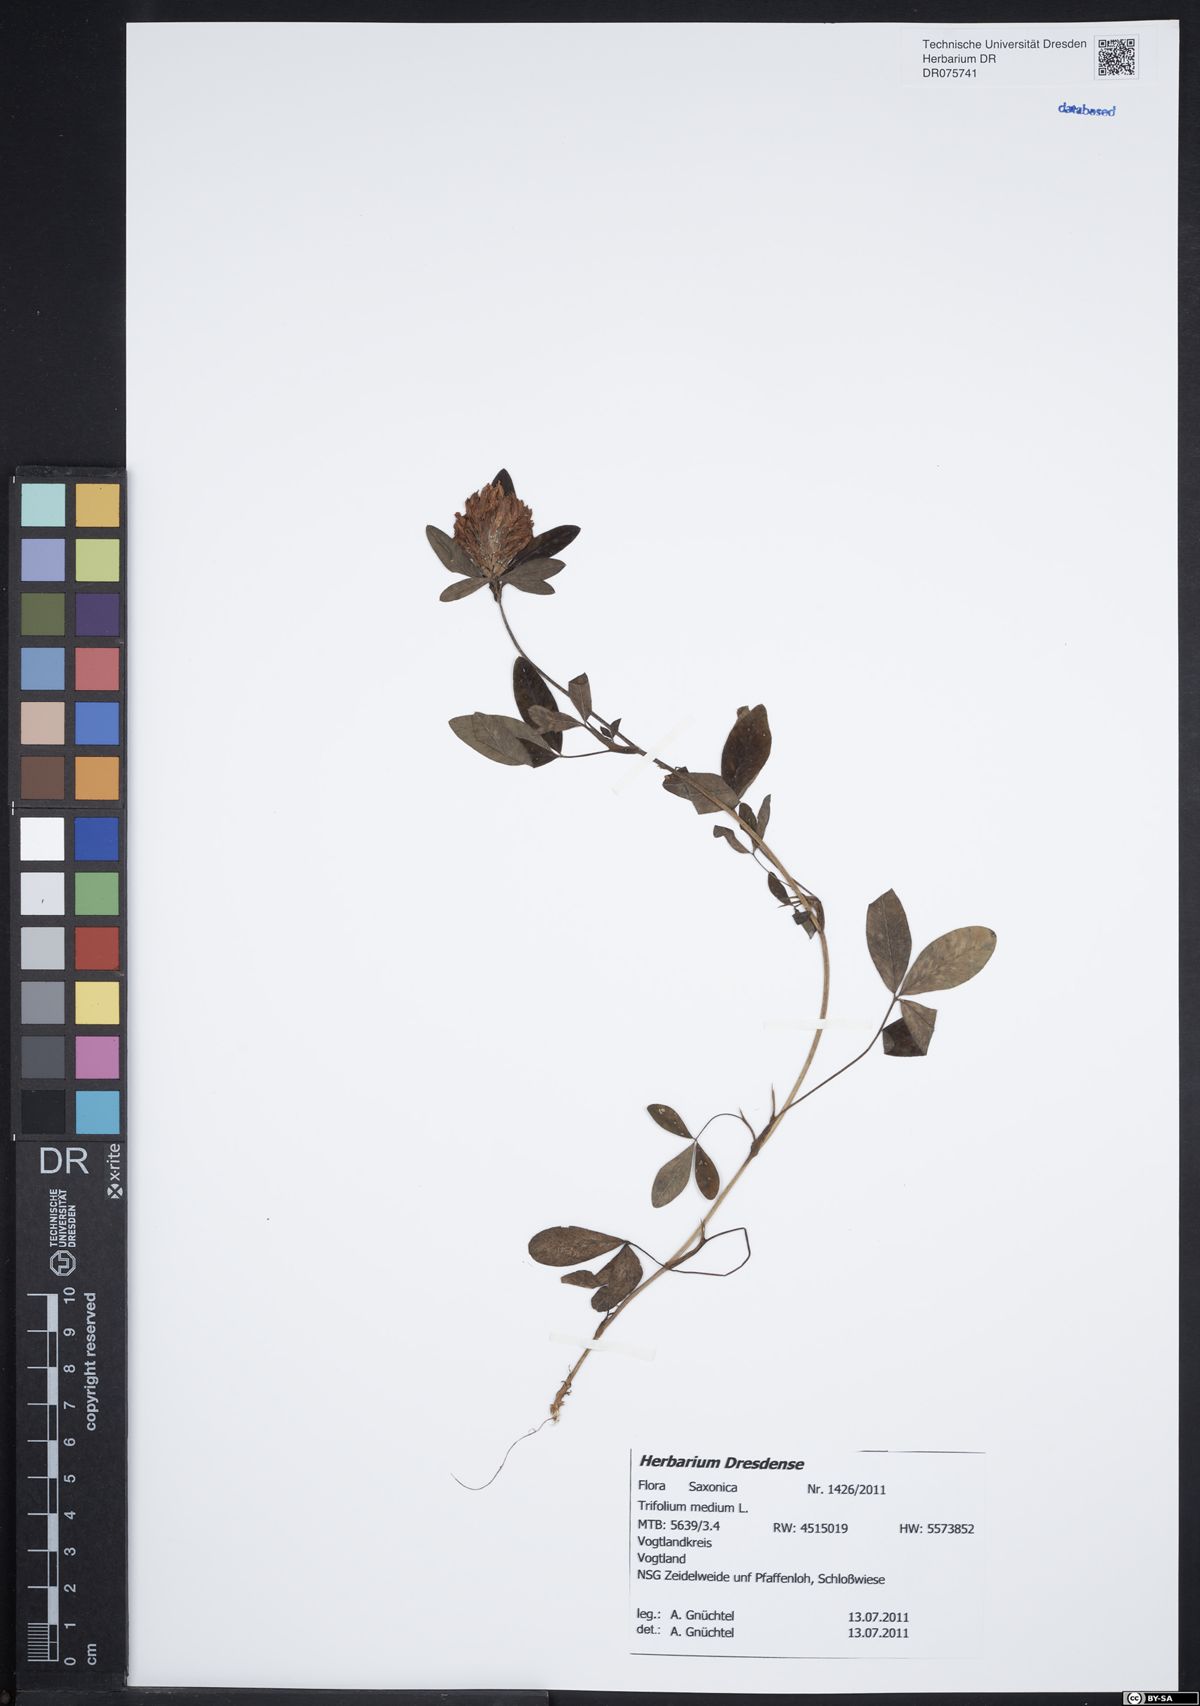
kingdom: Plantae
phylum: Tracheophyta
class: Magnoliopsida
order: Fabales
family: Fabaceae
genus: Trifolium
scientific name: Trifolium medium
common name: Zigzag clover
